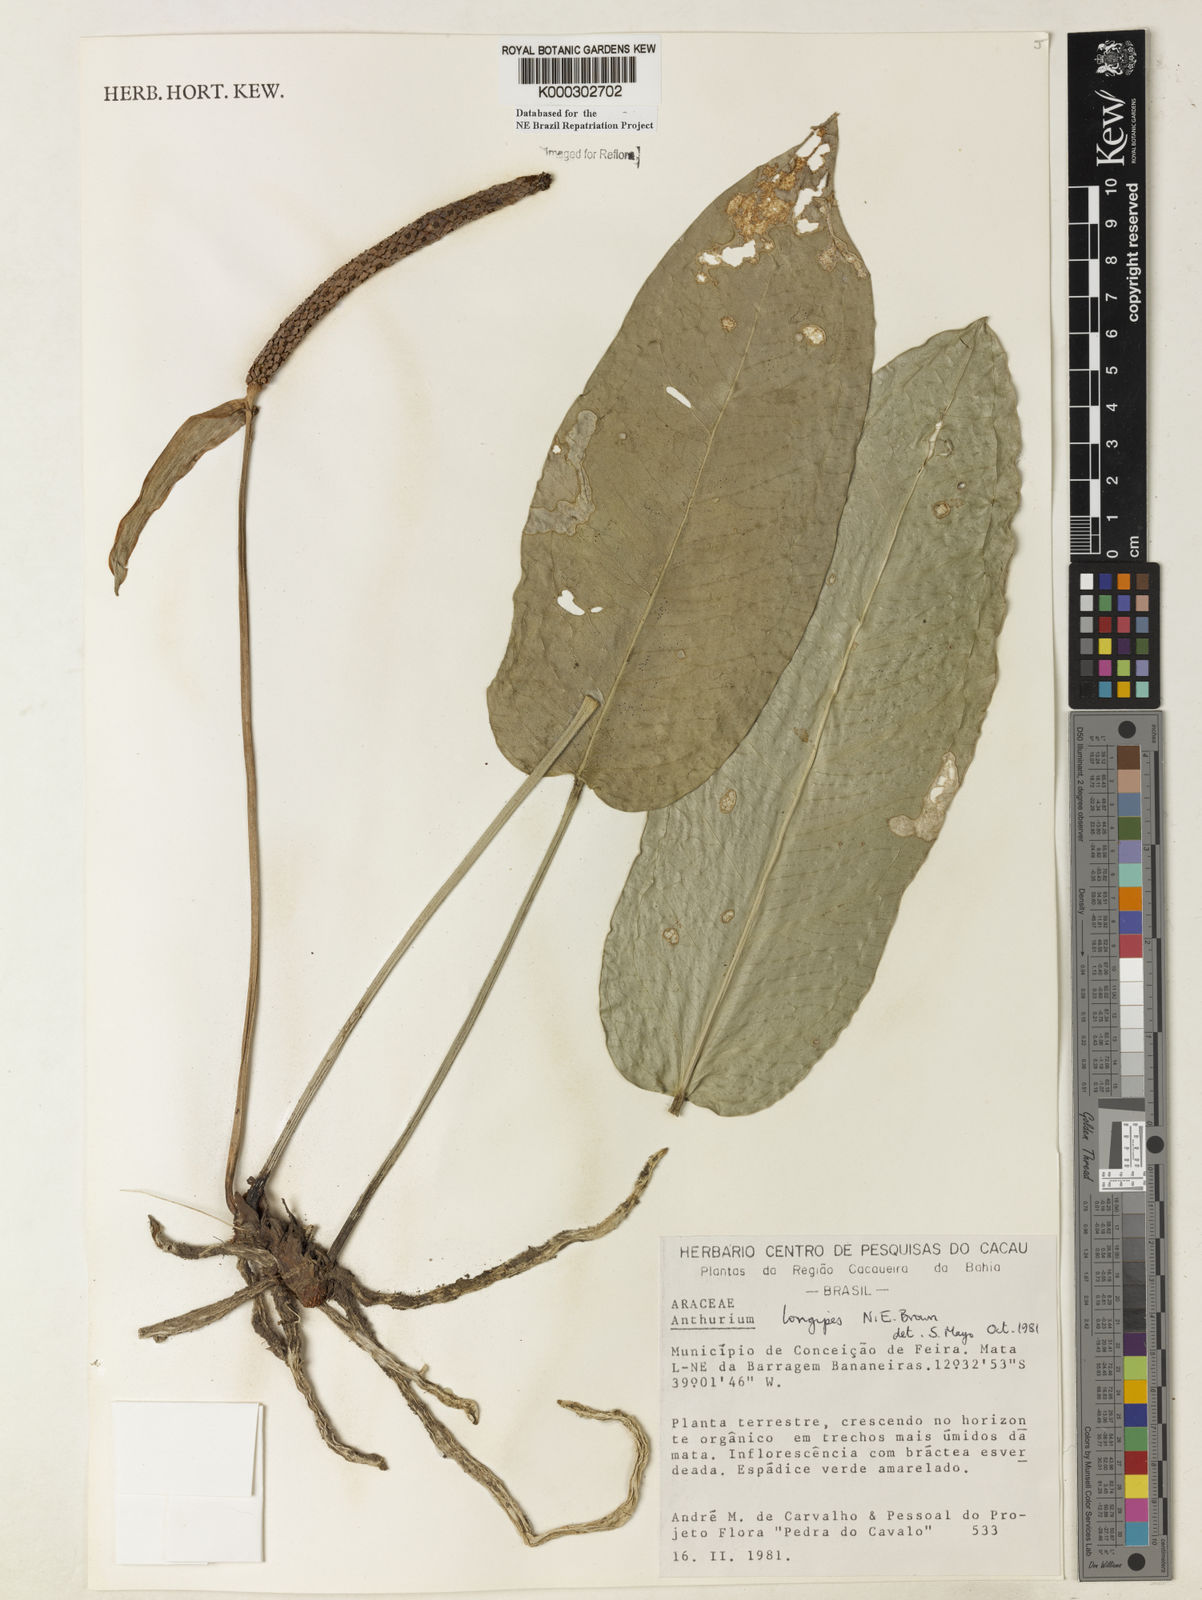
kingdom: Plantae
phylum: Tracheophyta
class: Liliopsida
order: Alismatales
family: Araceae
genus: Anthurium
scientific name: Anthurium longipes
